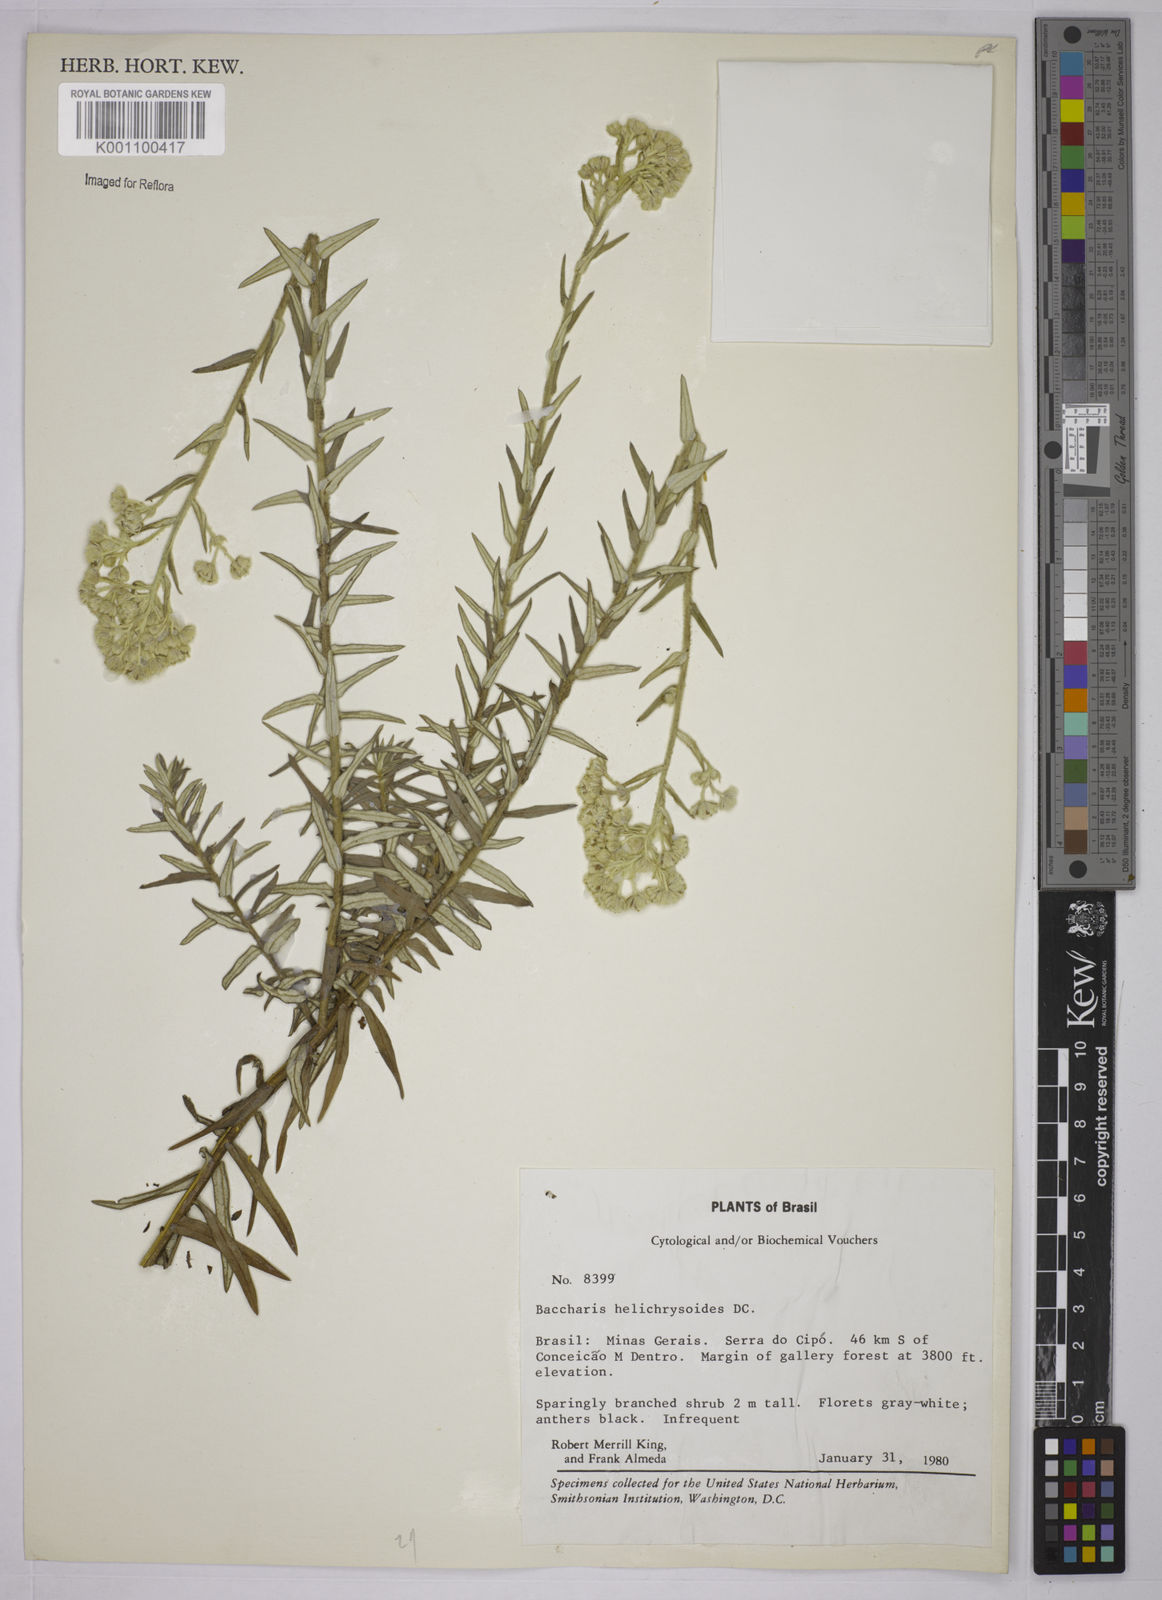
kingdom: Plantae
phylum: Tracheophyta
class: Magnoliopsida
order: Asterales
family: Asteraceae
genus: Baccharis
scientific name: Baccharis helichrysoides
